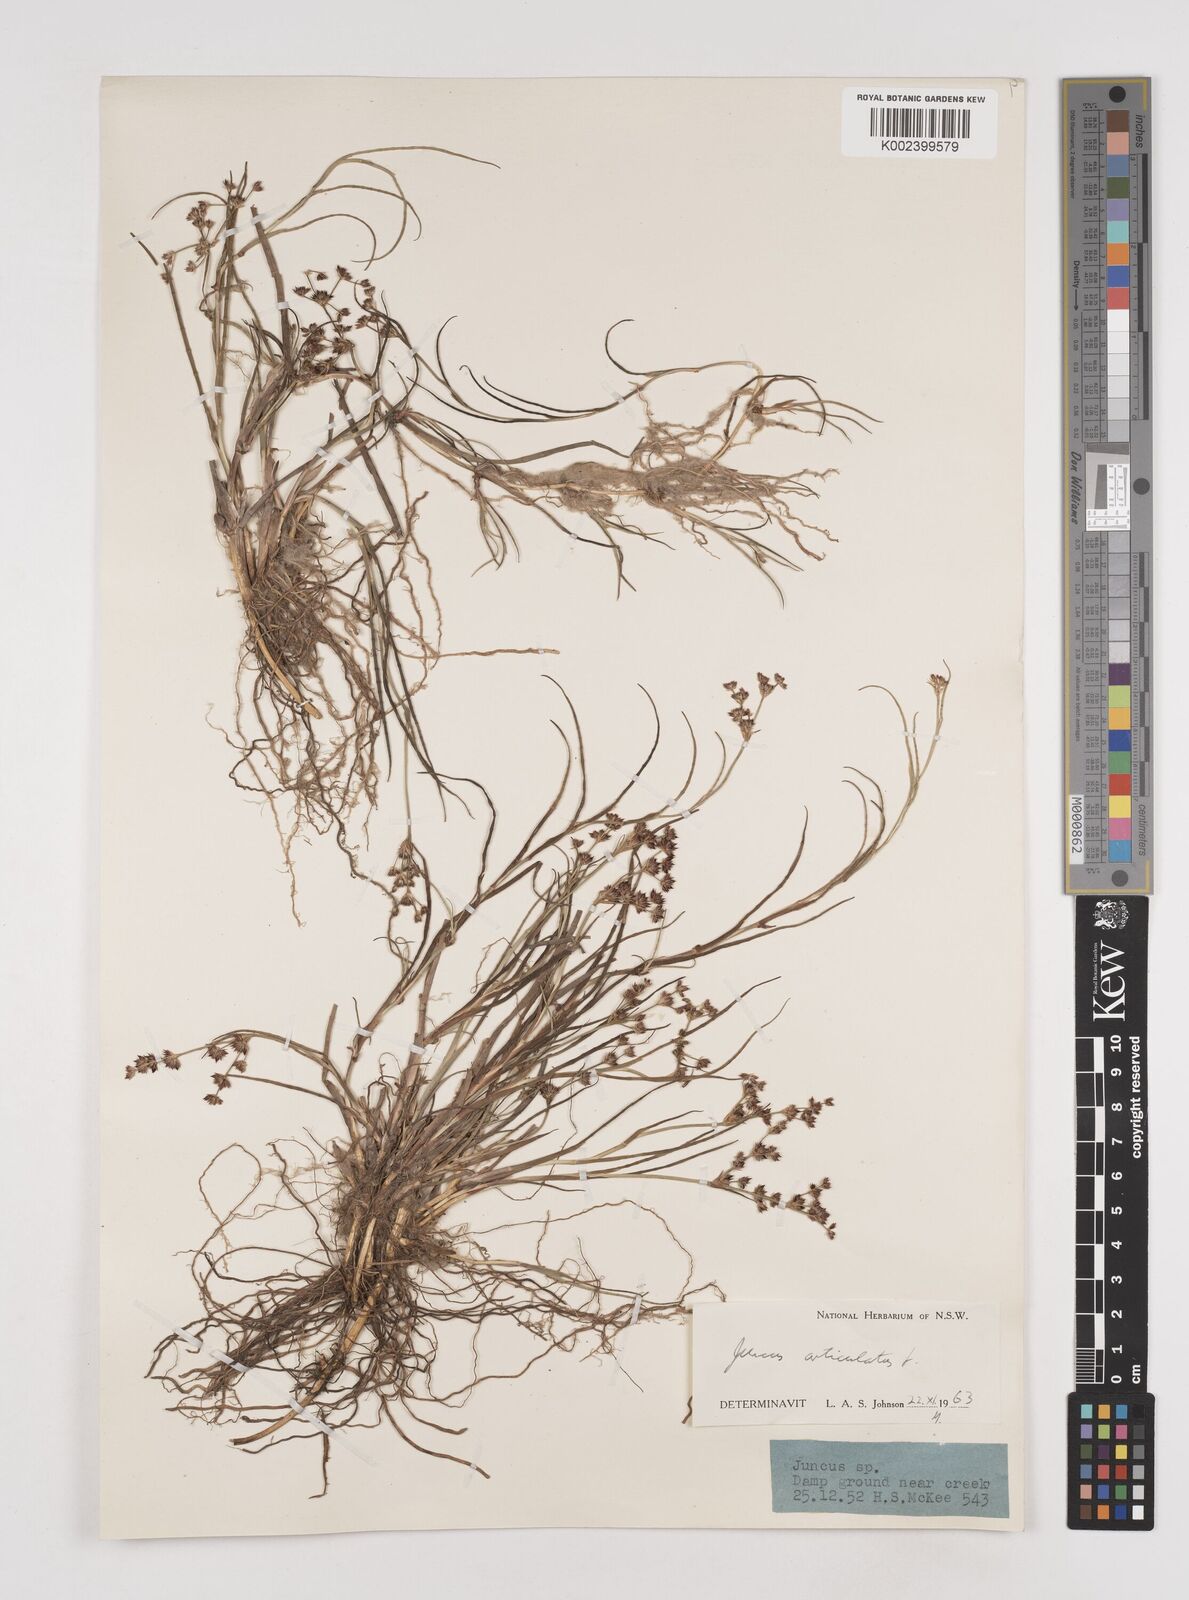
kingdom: Plantae
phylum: Tracheophyta
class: Liliopsida
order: Poales
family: Juncaceae
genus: Juncus
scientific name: Juncus articulatus
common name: Jointed rush
